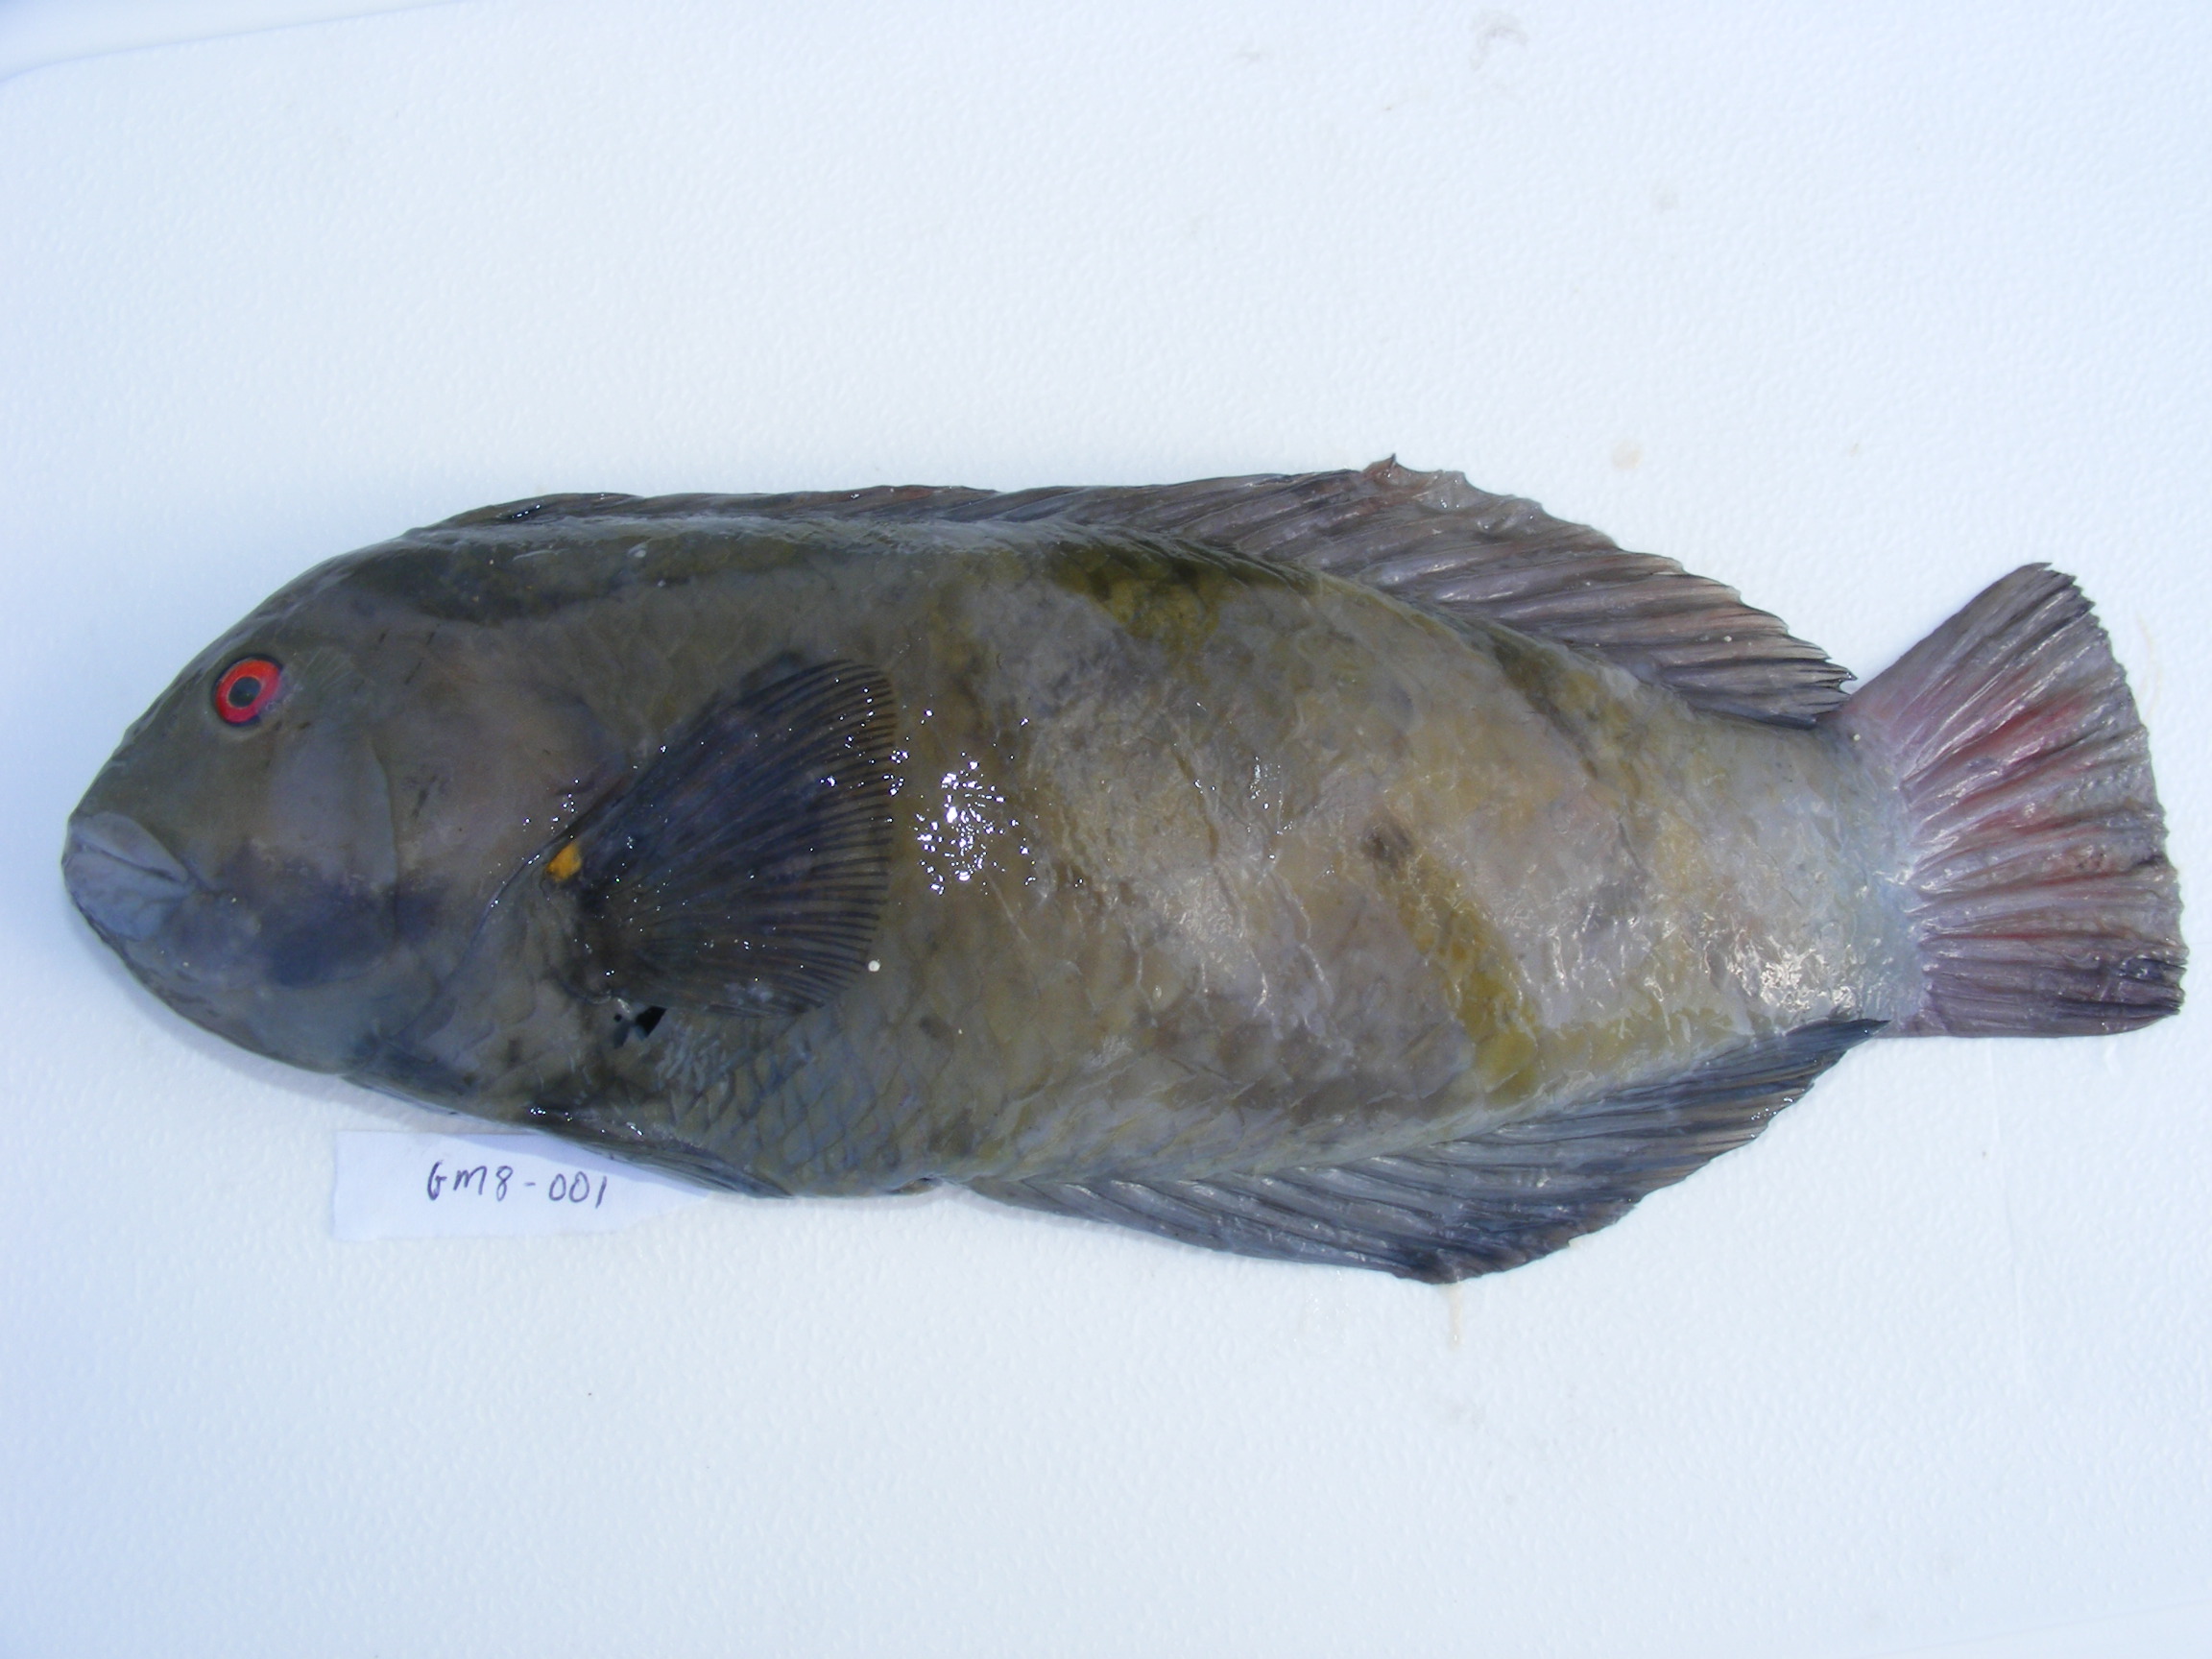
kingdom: Animalia
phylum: Chordata
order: Perciformes
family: Labridae
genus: Novaculichthys
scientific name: Novaculichthys taeniourus
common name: Rockmover wrasse
